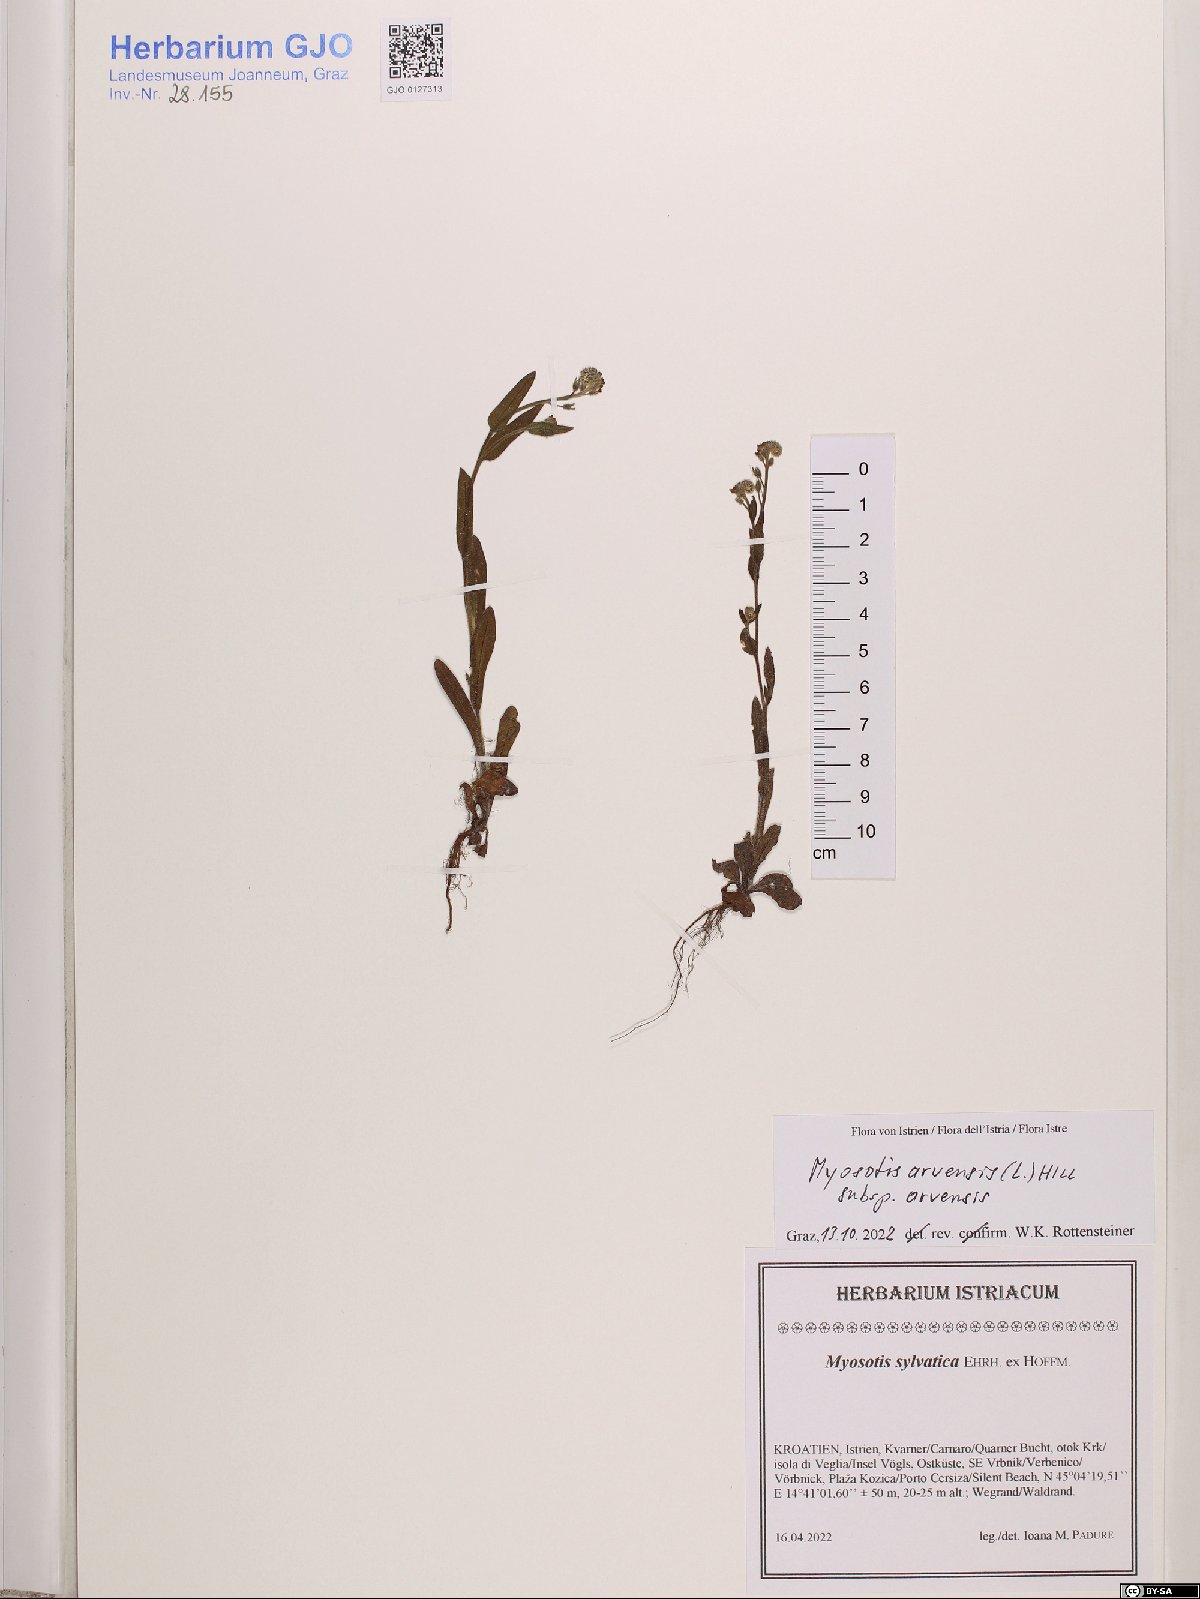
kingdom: Plantae
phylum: Tracheophyta
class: Magnoliopsida
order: Boraginales
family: Boraginaceae
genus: Myosotis
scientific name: Myosotis arvensis
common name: Field forget-me-not
